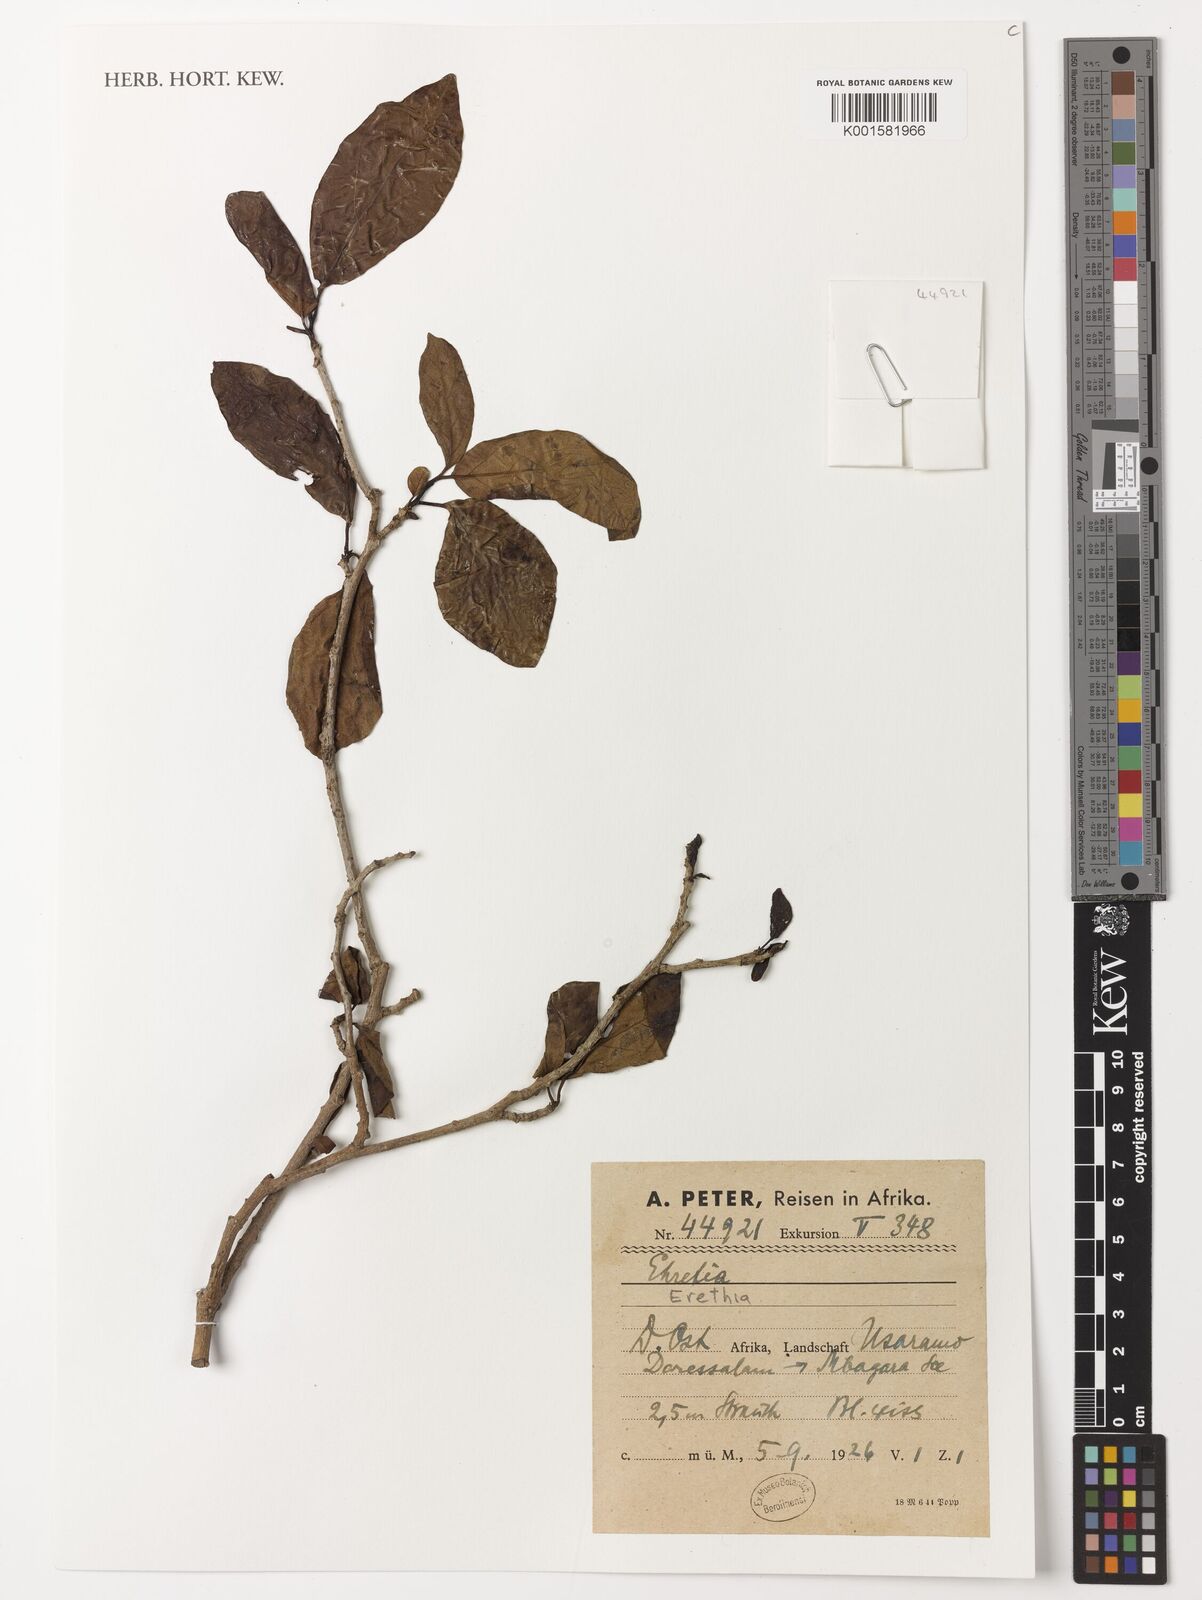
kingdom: Plantae
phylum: Tracheophyta
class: Magnoliopsida
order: Boraginales
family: Ehretiaceae
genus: Ehretia
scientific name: Ehretia
